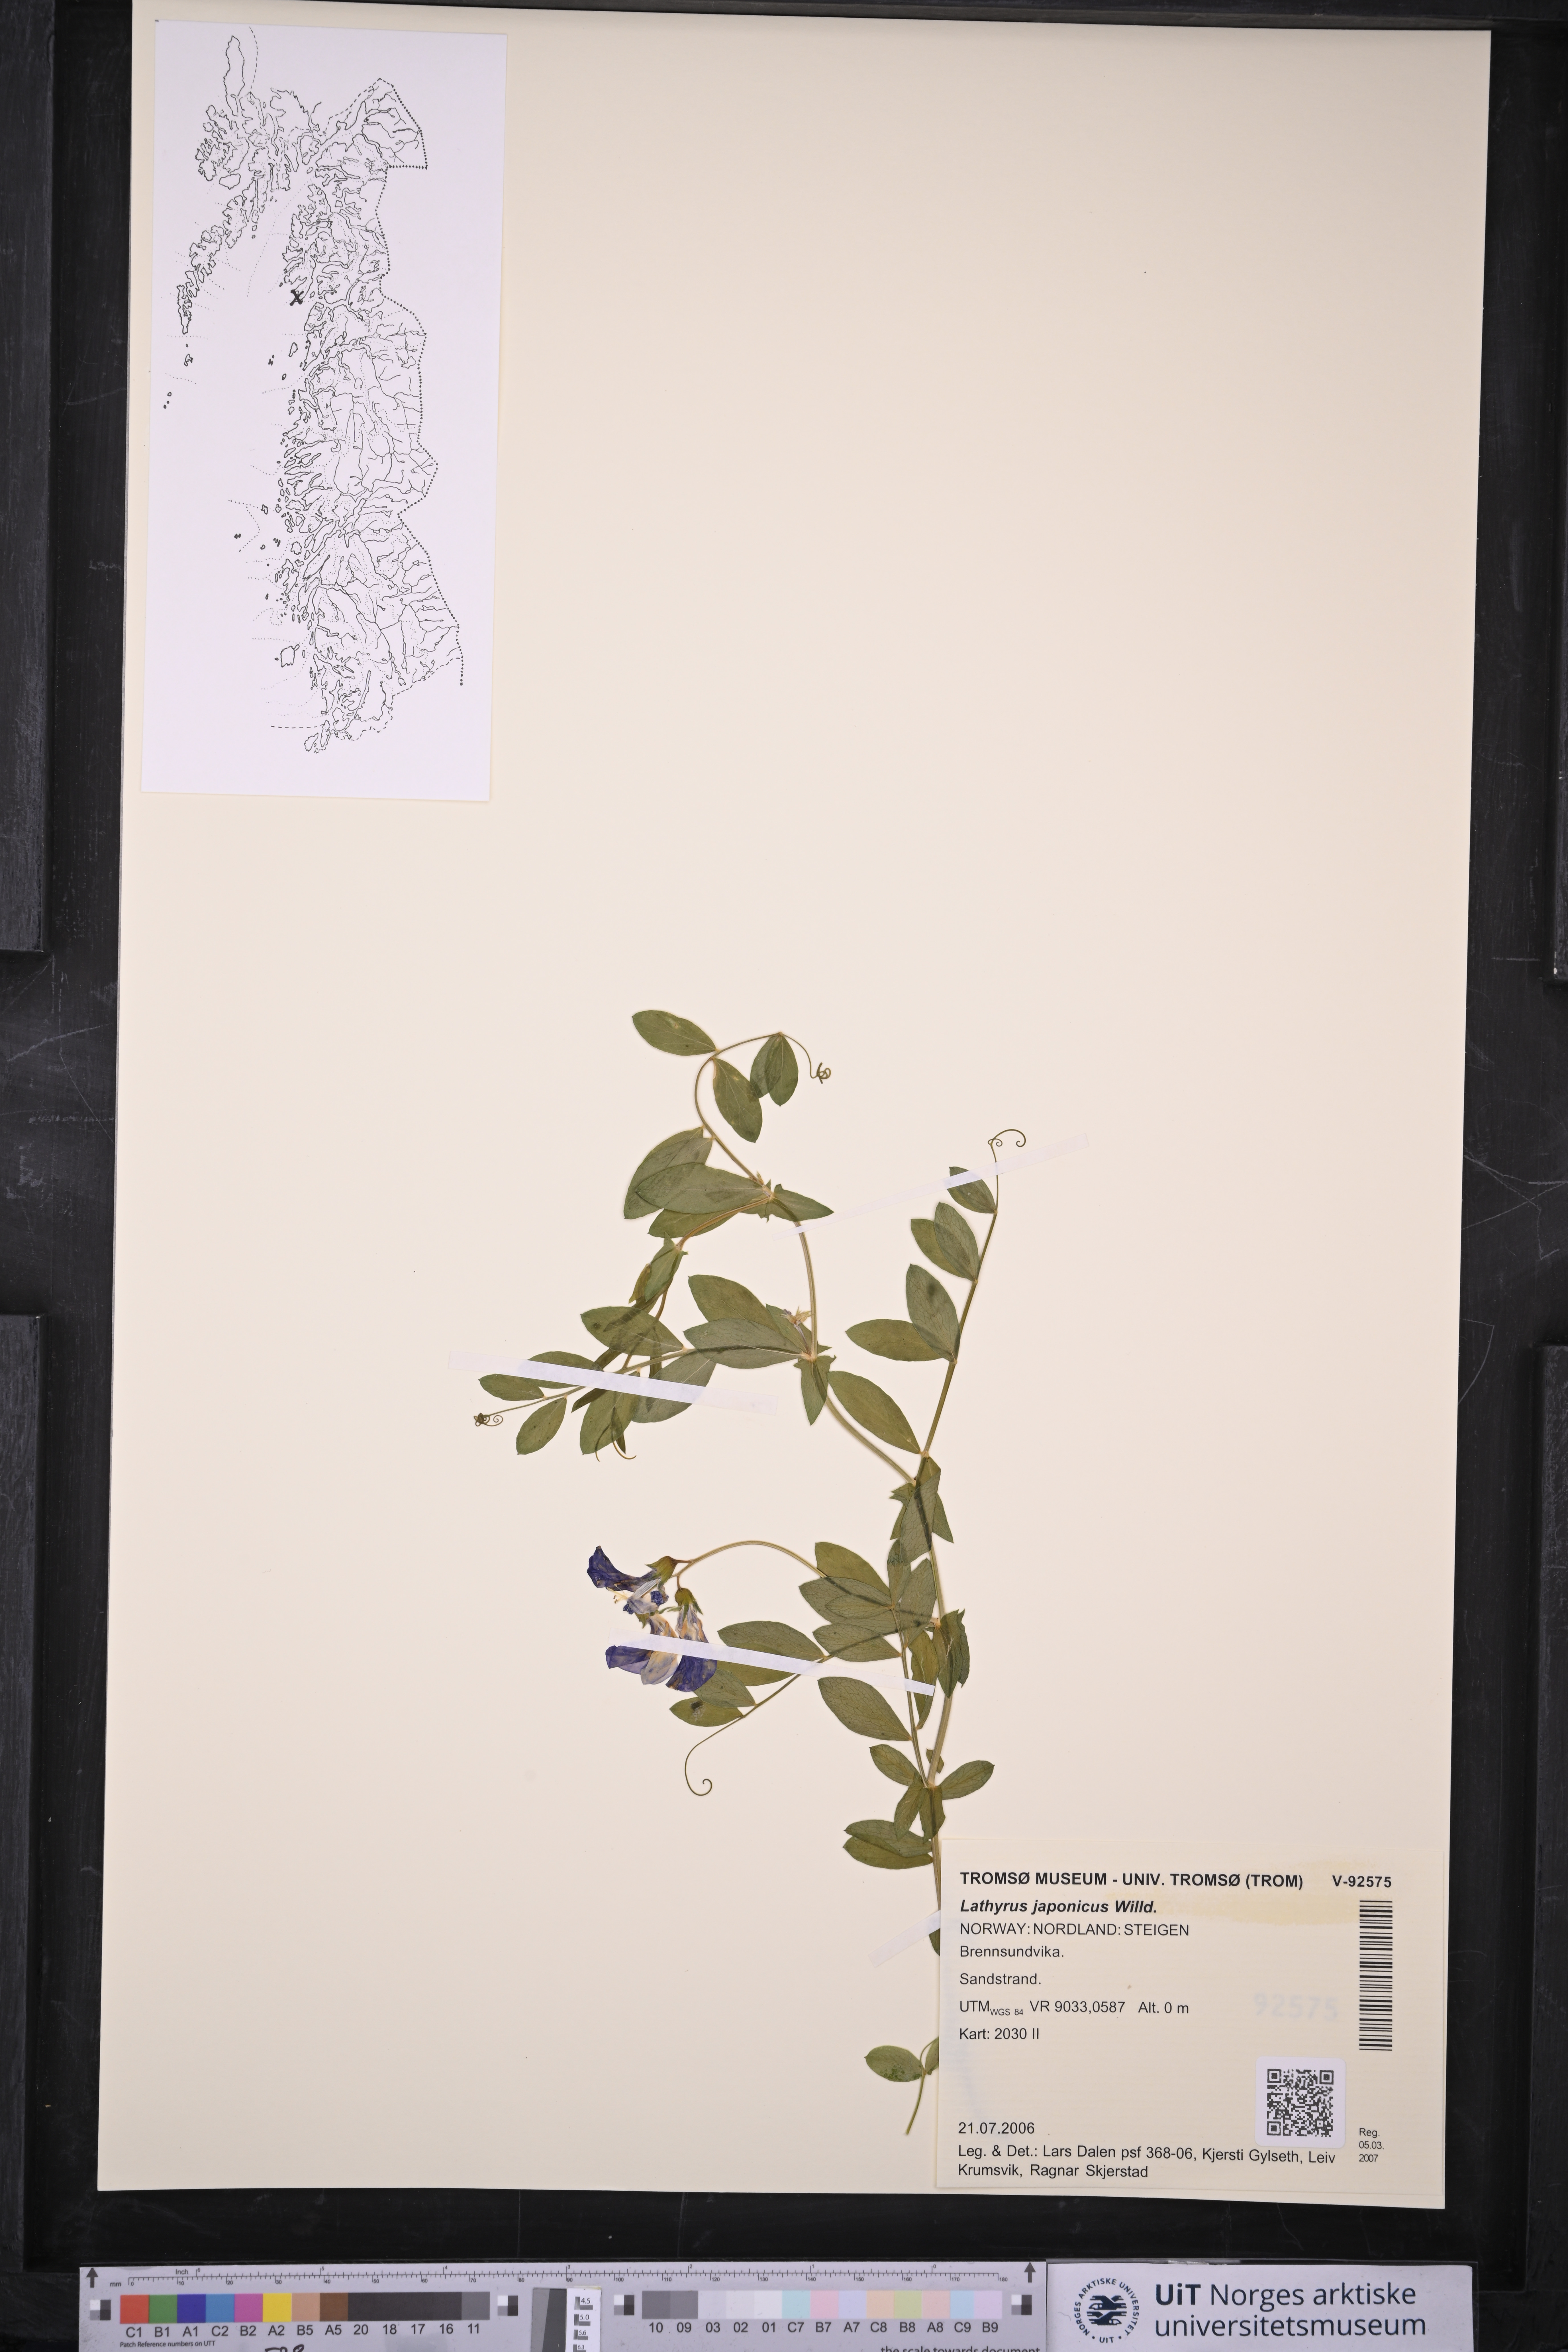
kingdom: Plantae
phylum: Tracheophyta
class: Magnoliopsida
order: Fabales
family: Fabaceae
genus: Lathyrus
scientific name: Lathyrus japonicus
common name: Sea pea
